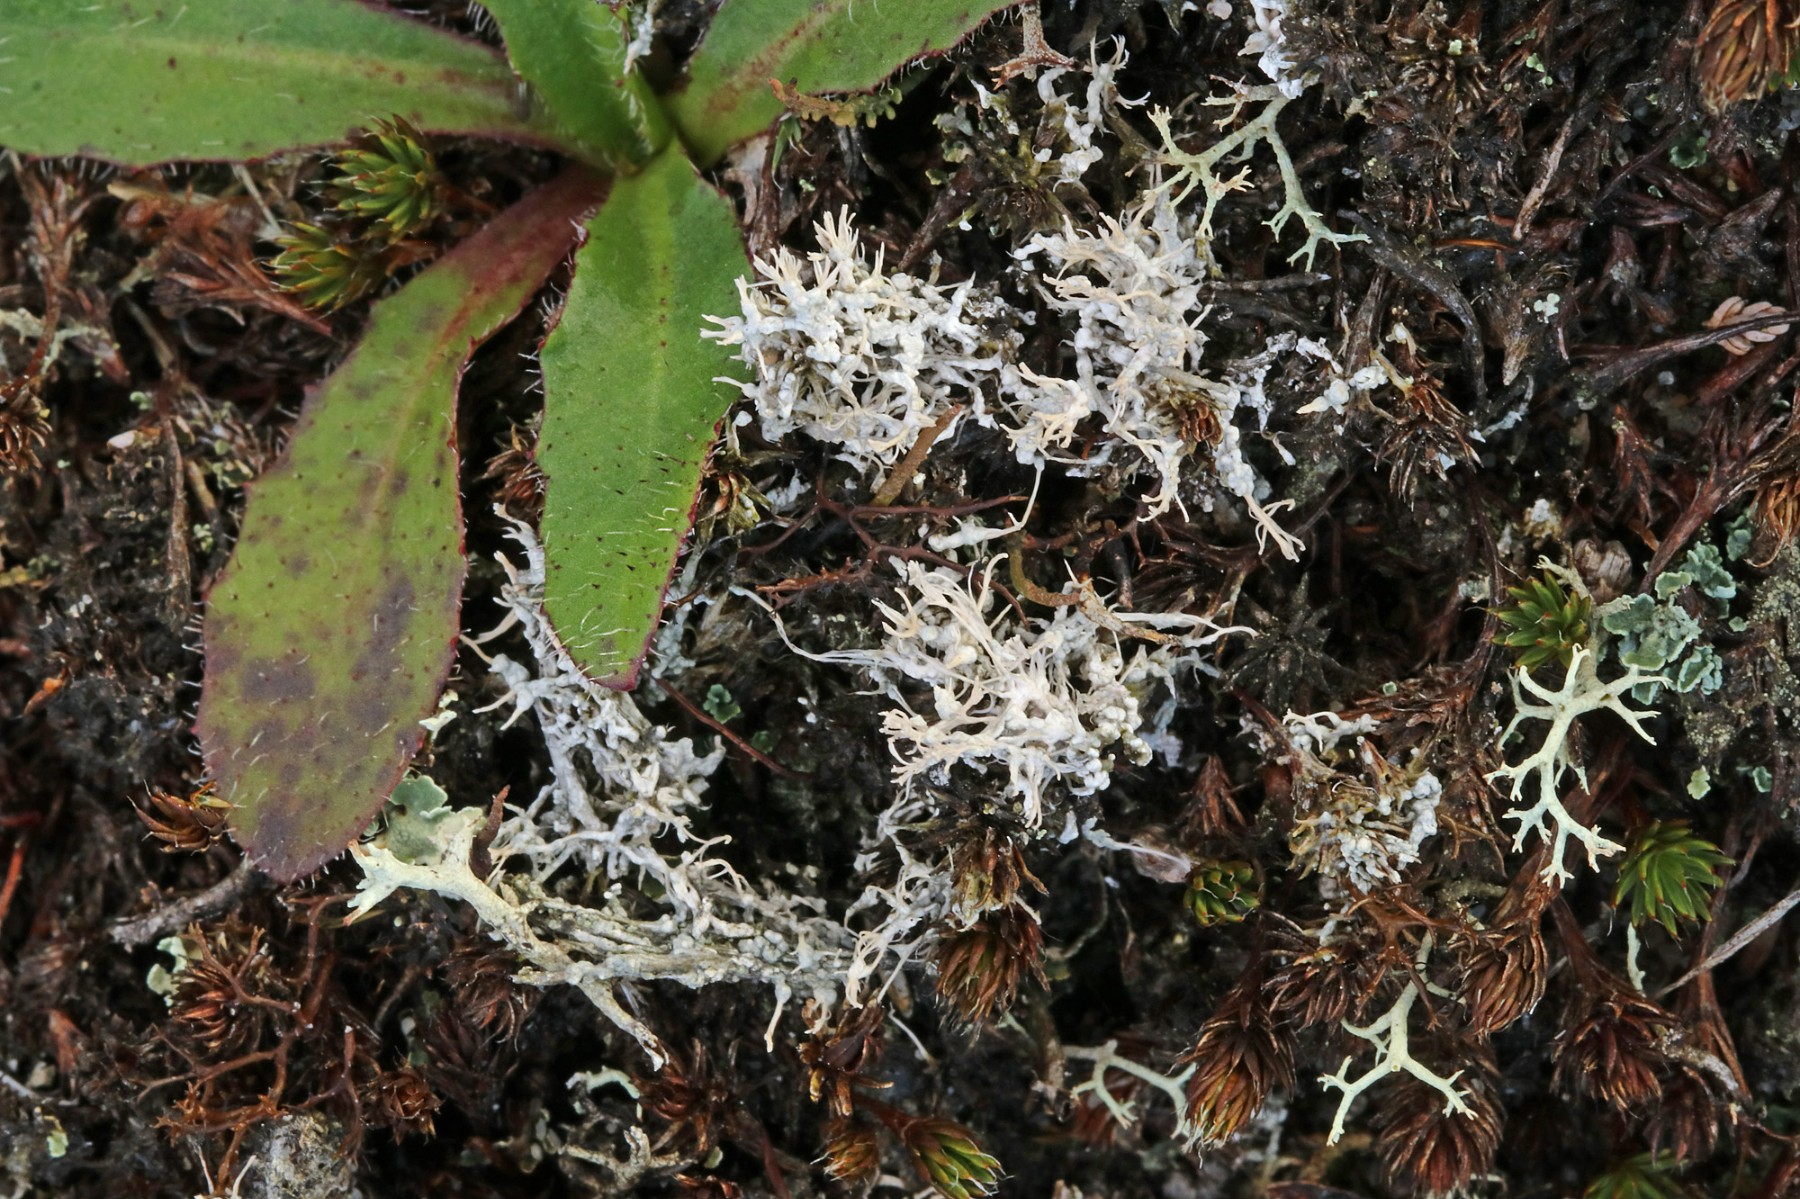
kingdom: Fungi
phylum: Ascomycota
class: Lecanoromycetes
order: Pertusariales
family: Ochrolechiaceae
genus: Ochrolechia
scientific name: Ochrolechia frigida
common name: fjeld-blegskivelav
